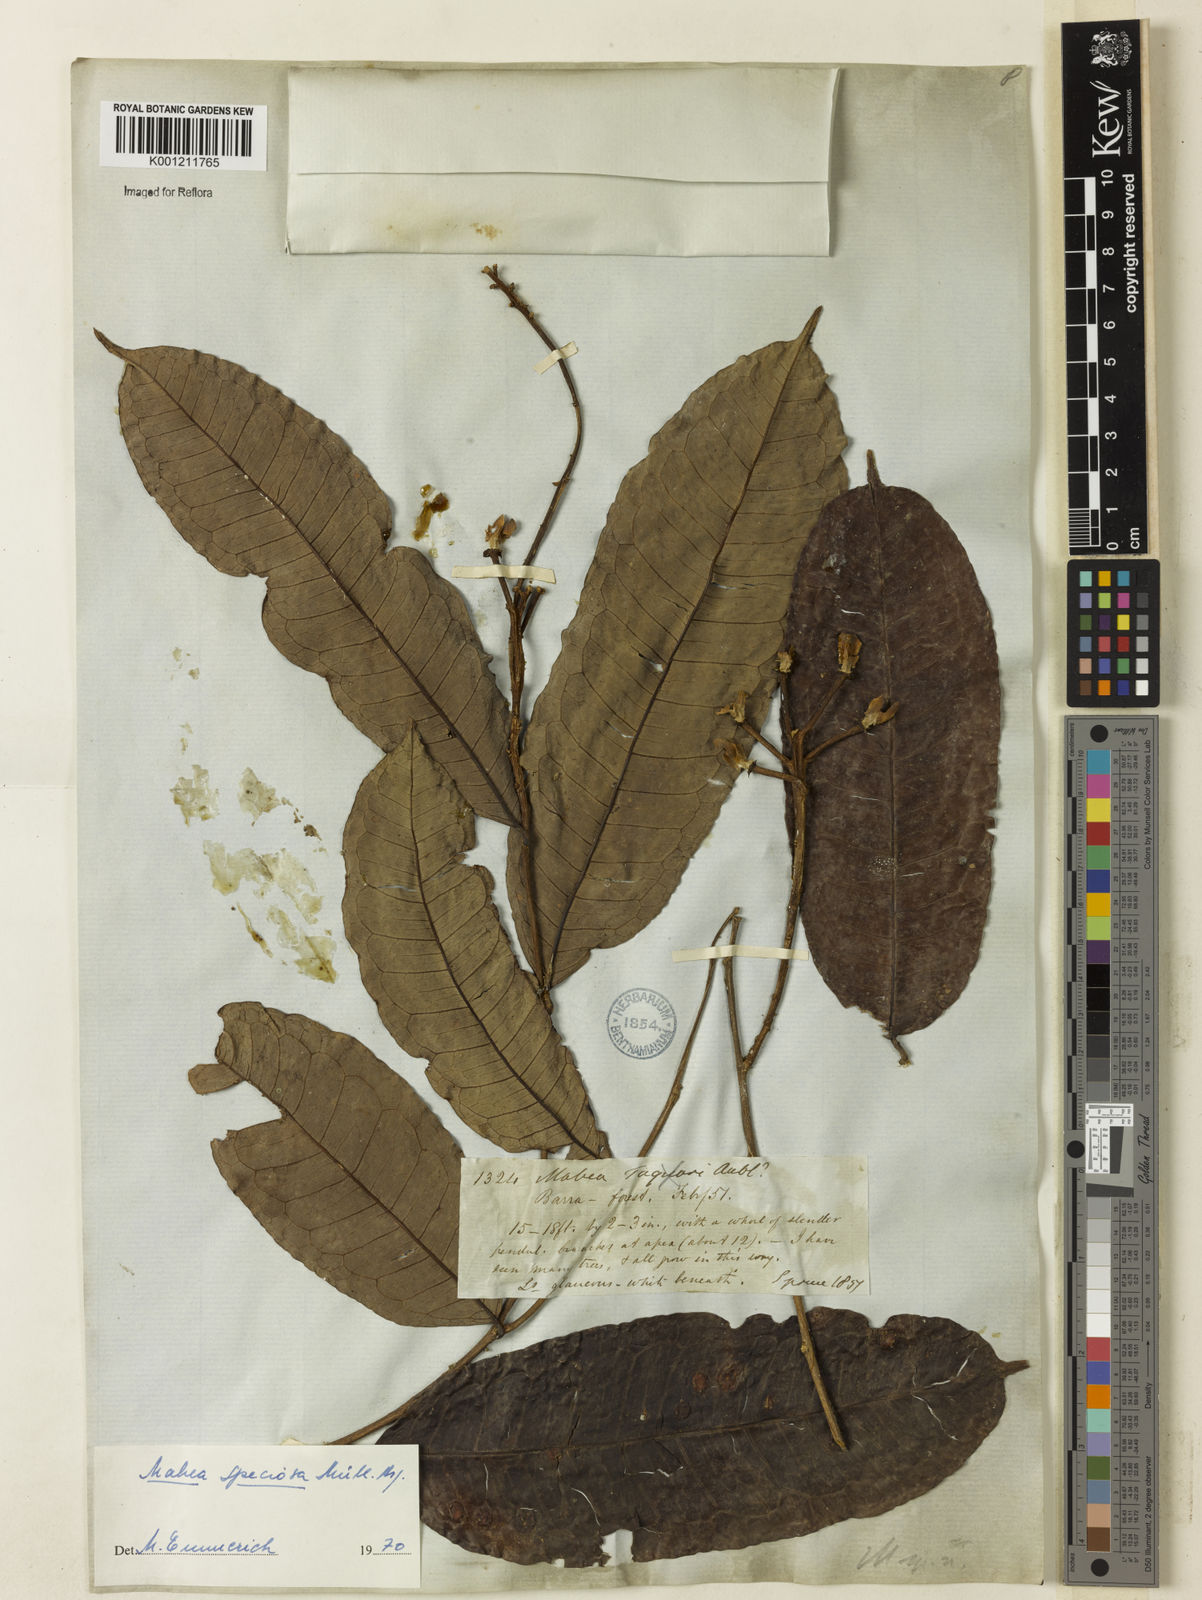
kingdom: Plantae
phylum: Tracheophyta
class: Magnoliopsida
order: Malpighiales
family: Euphorbiaceae
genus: Mabea
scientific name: Mabea
